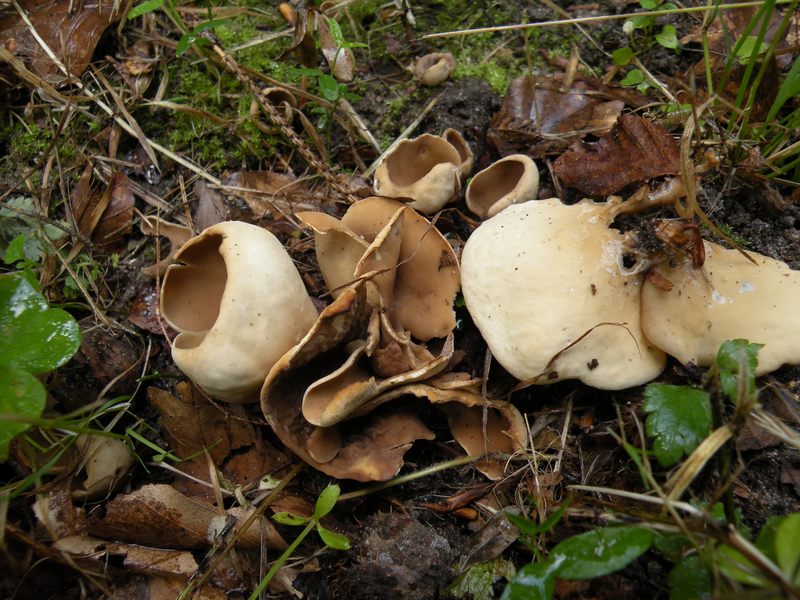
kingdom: Fungi
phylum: Ascomycota
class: Pezizomycetes
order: Pezizales
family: Otideaceae
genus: Otidea
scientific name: Otidea alutacea
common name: læder-ørebæger
